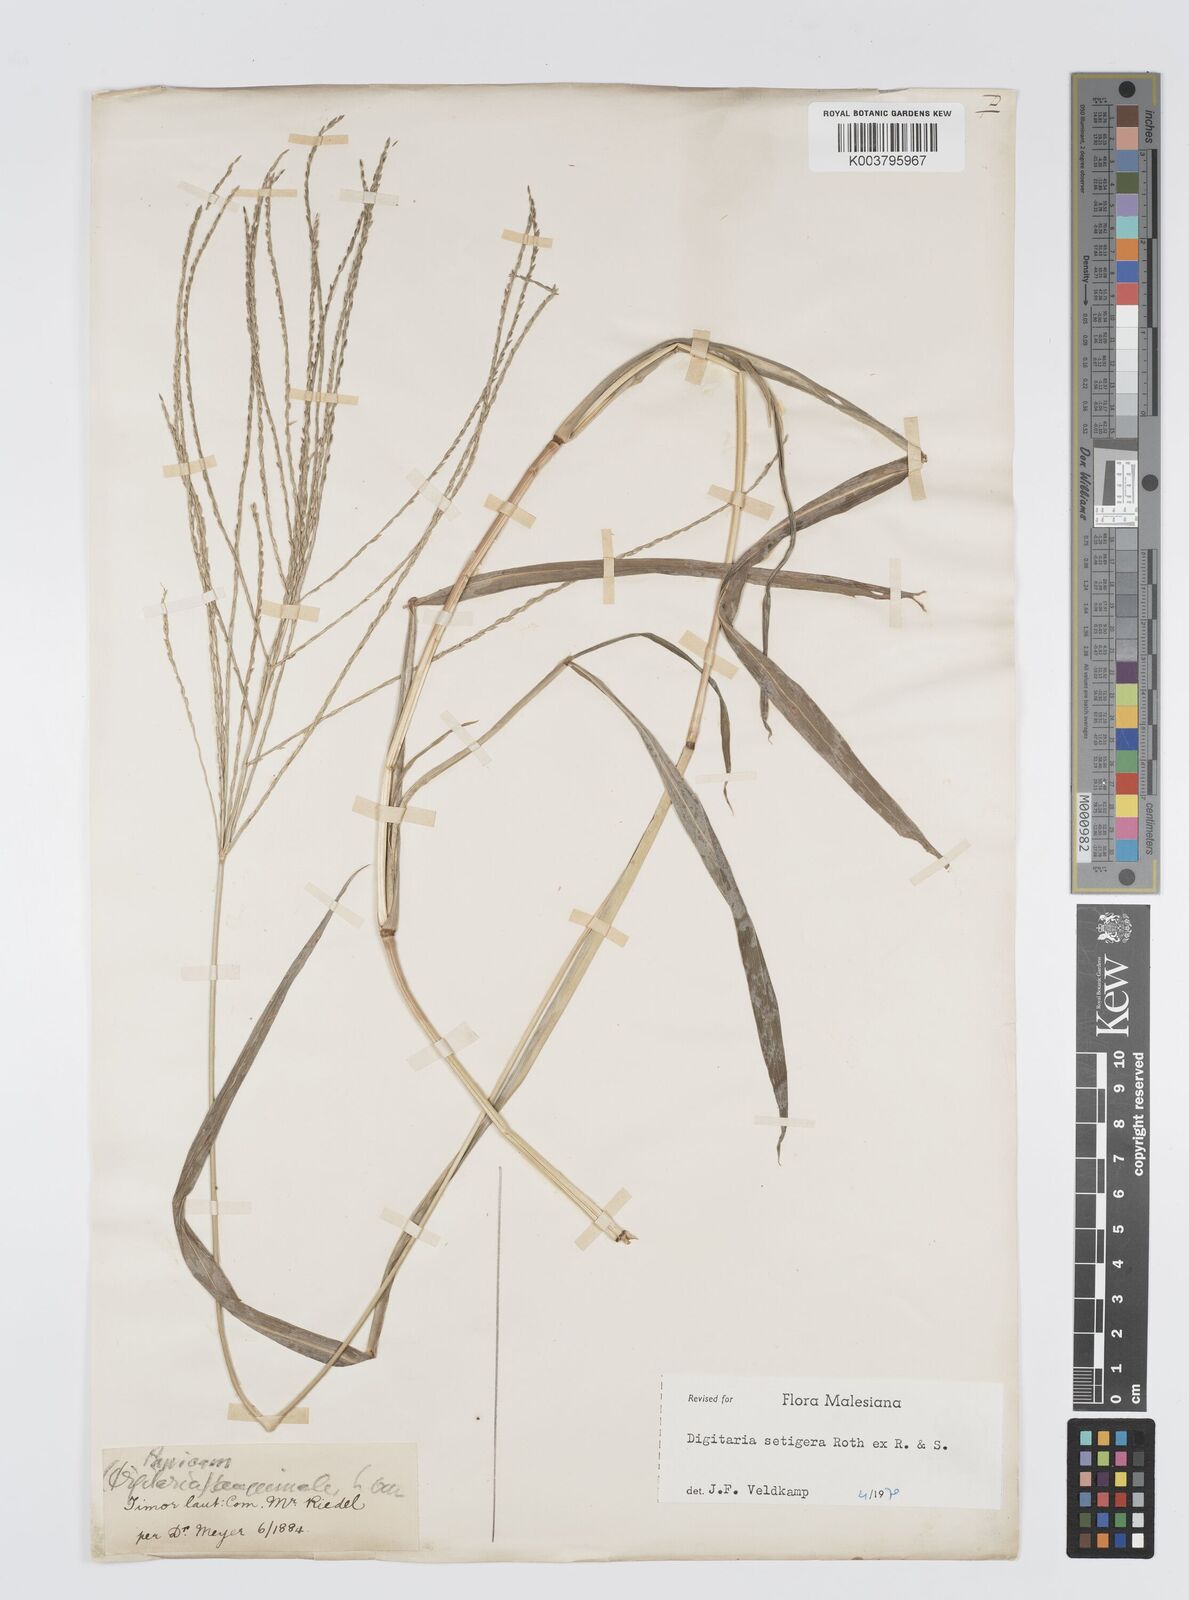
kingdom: Plantae
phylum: Tracheophyta
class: Liliopsida
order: Poales
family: Poaceae
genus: Digitaria
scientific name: Digitaria setigera
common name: East indian crabgrass
